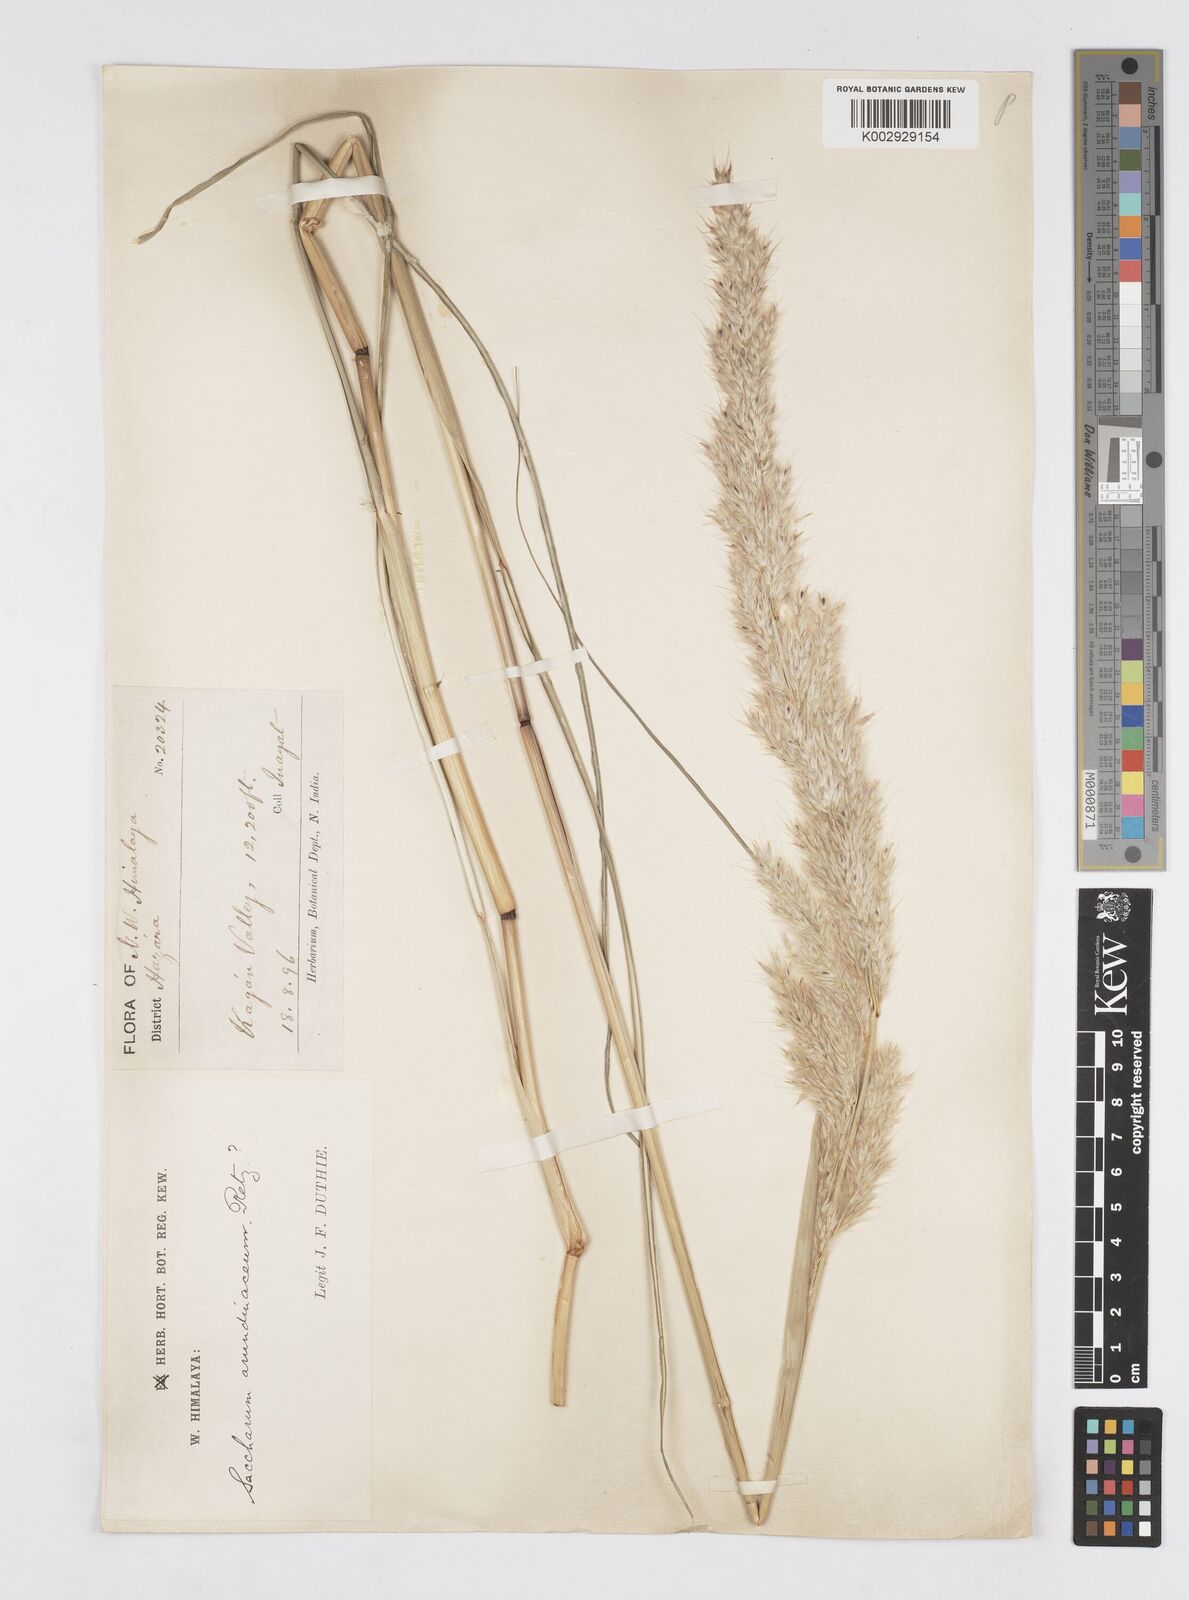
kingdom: Plantae
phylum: Tracheophyta
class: Liliopsida
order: Poales
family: Poaceae
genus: Saccharum
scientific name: Saccharum
